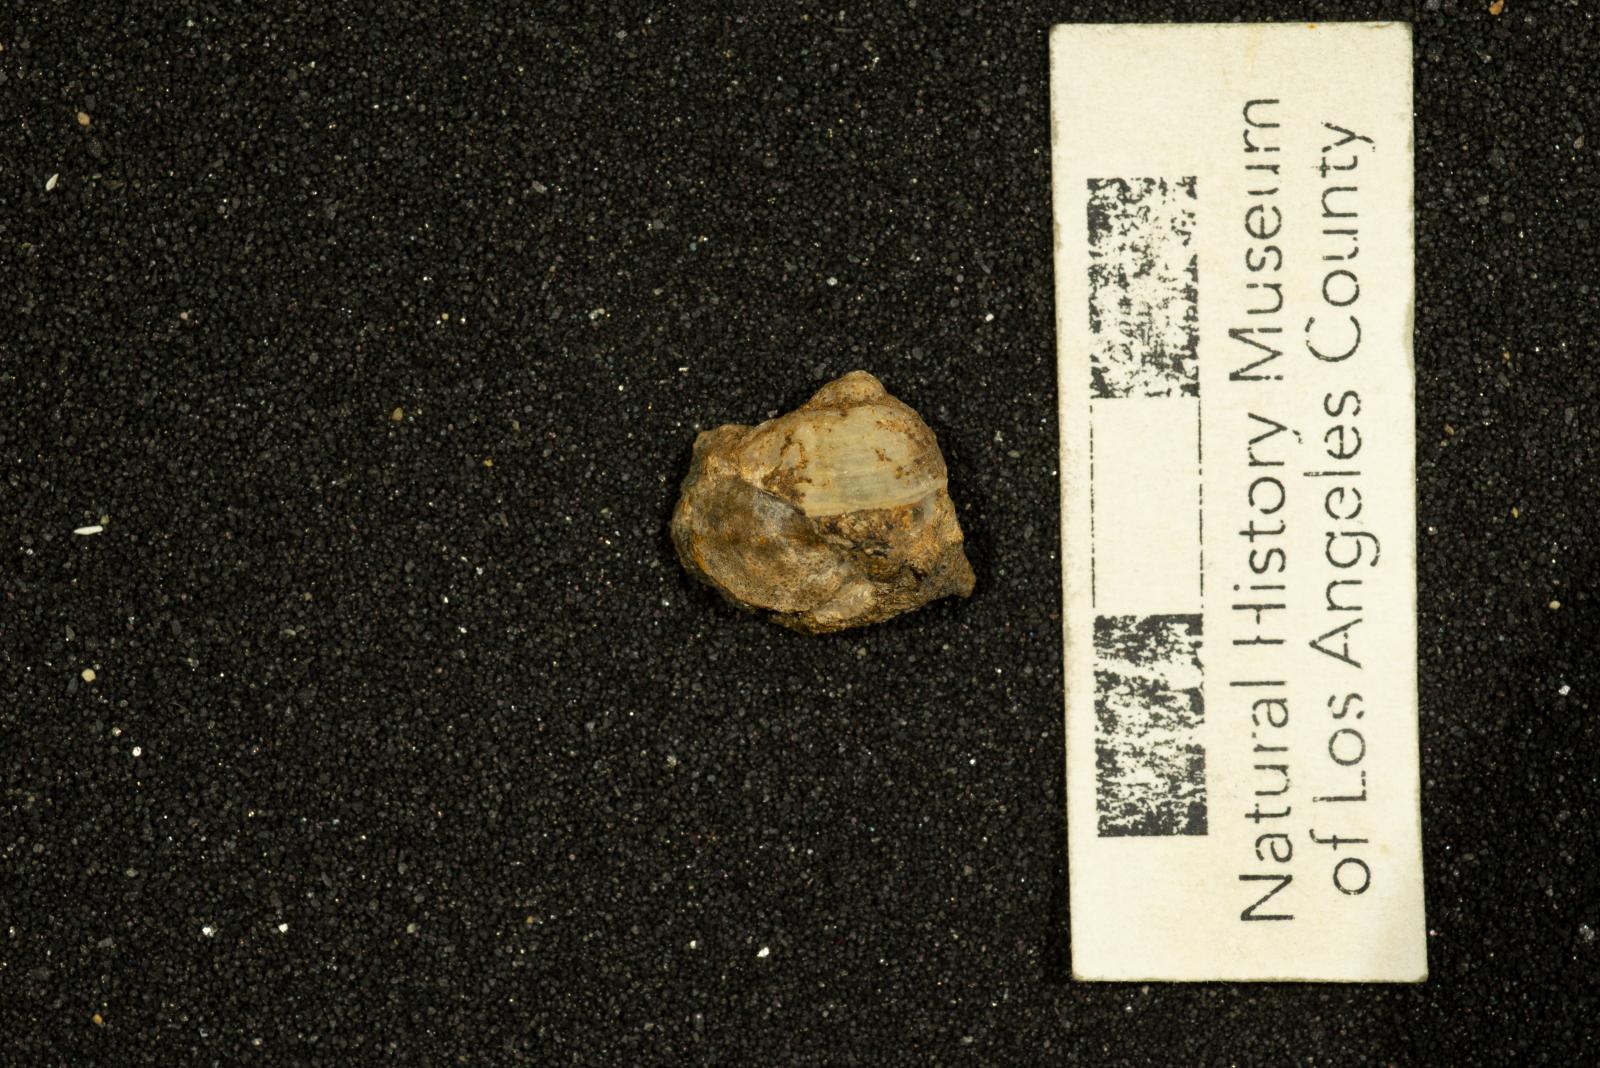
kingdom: Animalia
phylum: Mollusca
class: Gastropoda
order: Littorinimorpha
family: Calyptraeidae
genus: Lysis
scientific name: Lysis mickeyi
